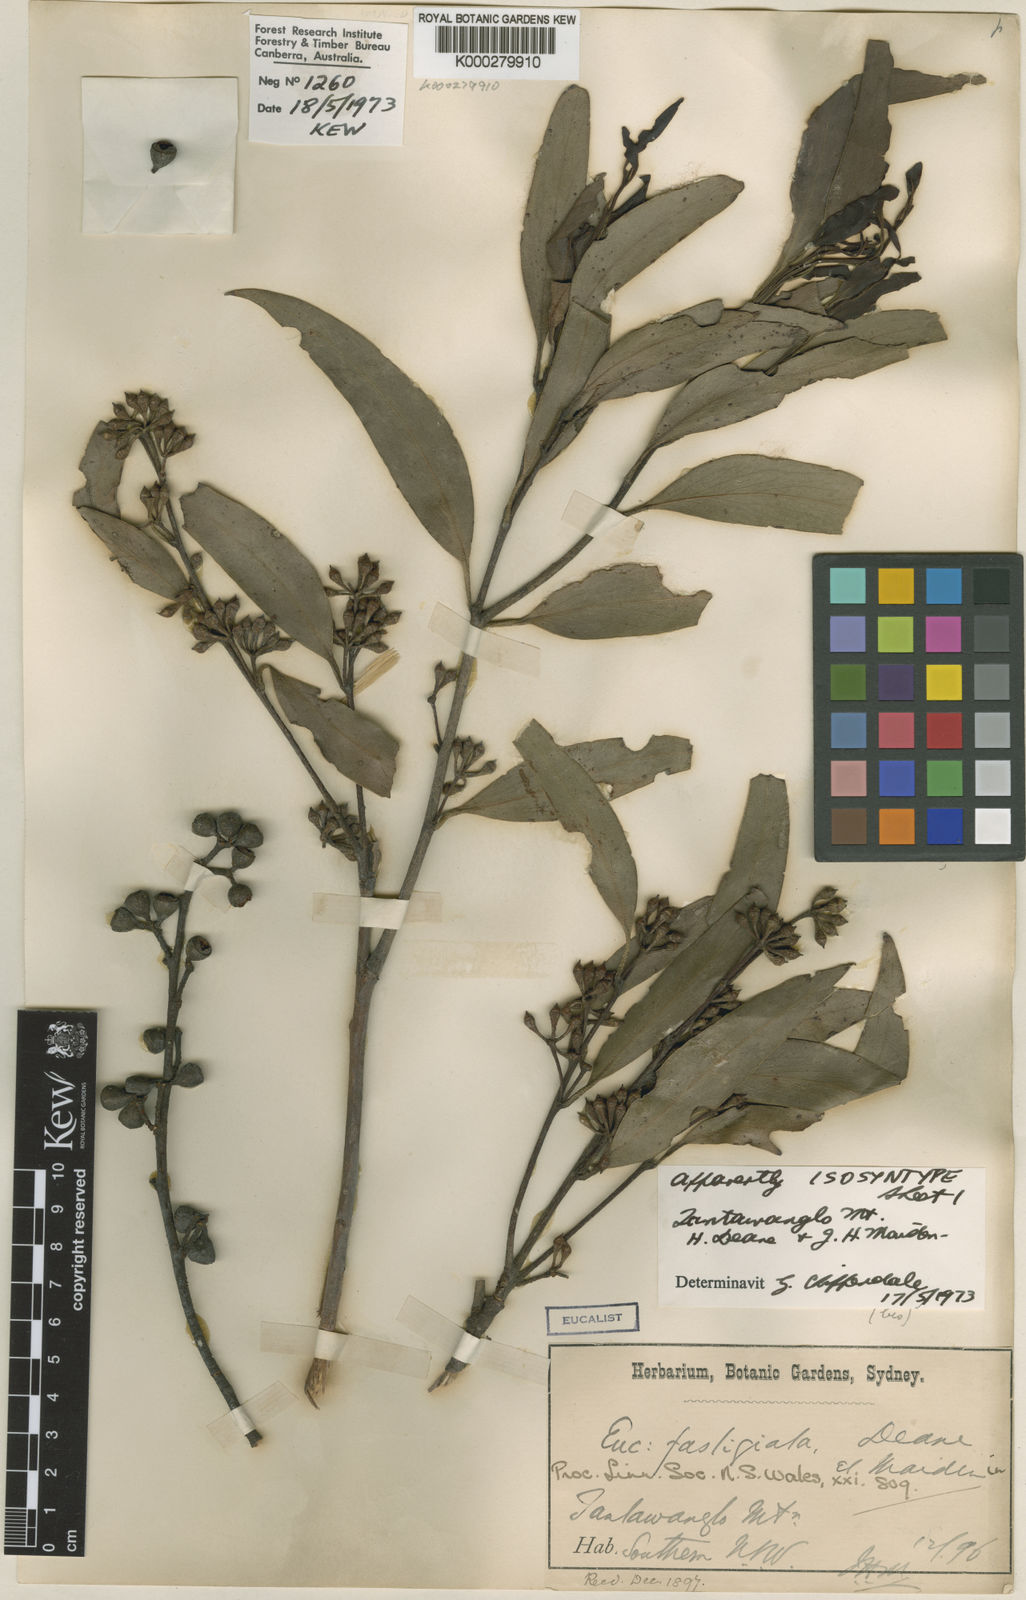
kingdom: Plantae
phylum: Tracheophyta
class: Magnoliopsida
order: Myrtales
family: Myrtaceae
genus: Eucalyptus
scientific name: Eucalyptus fastigata
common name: Brown barrel
